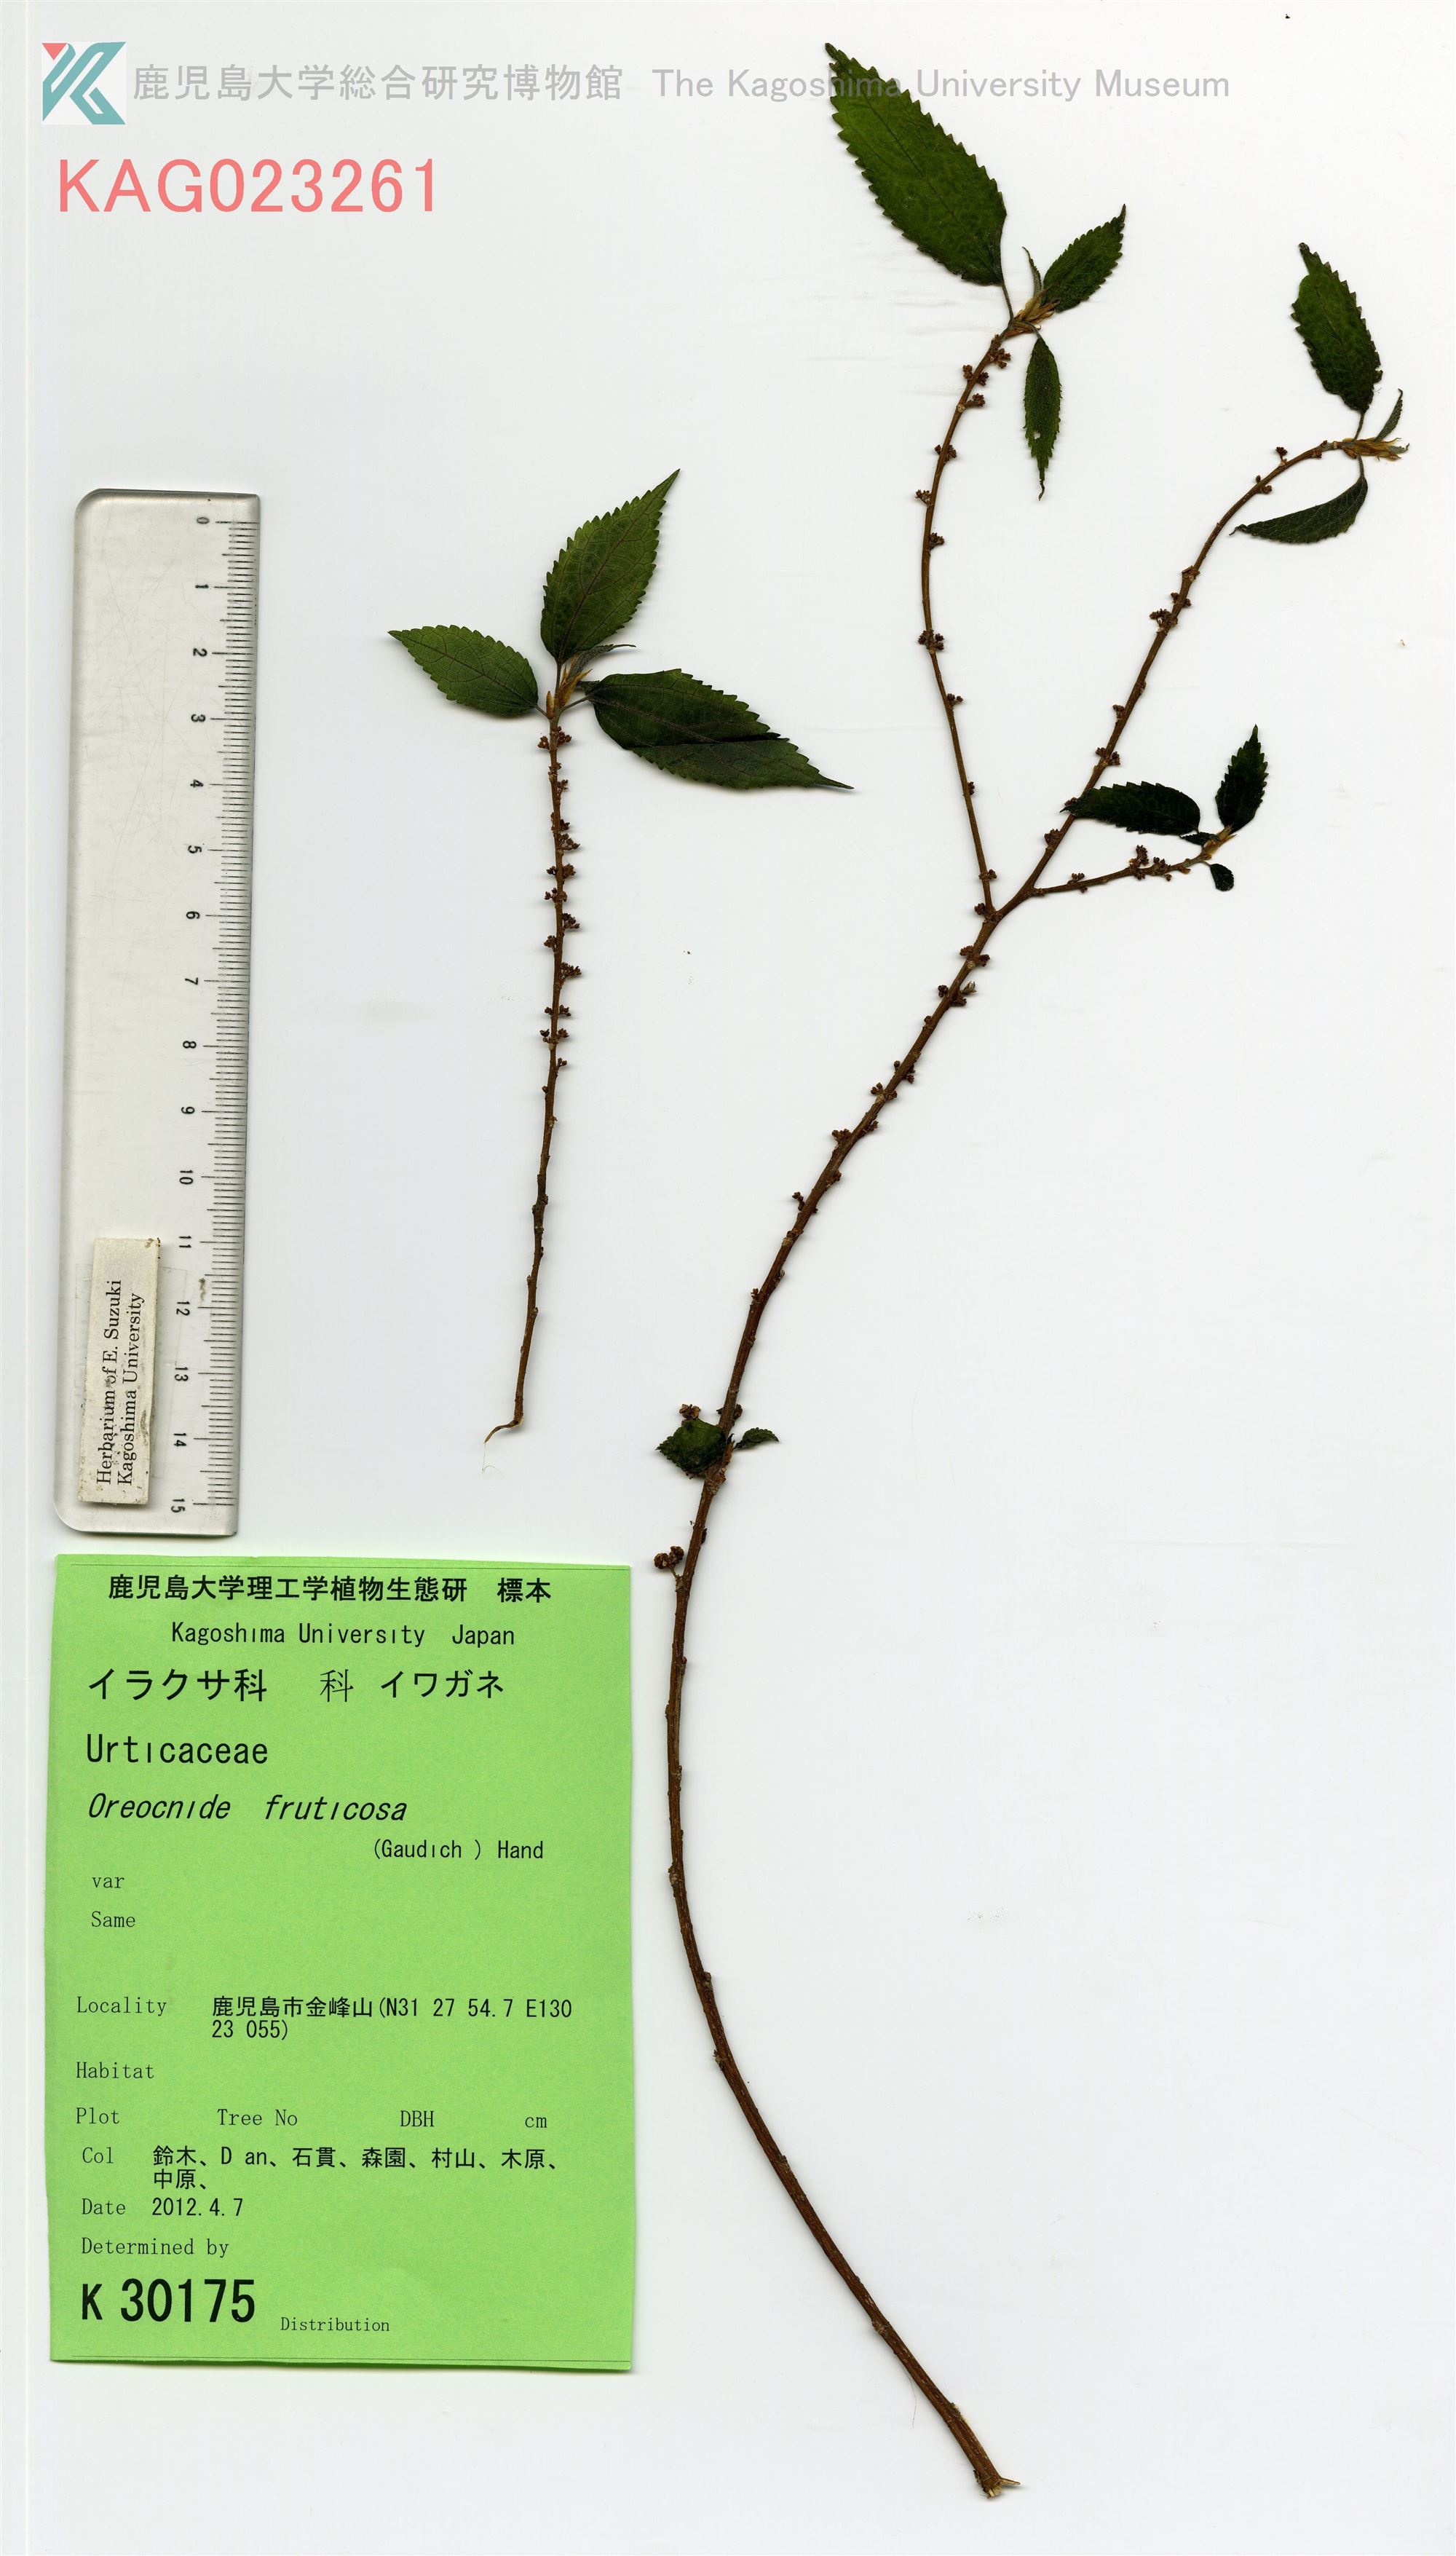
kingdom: Plantae
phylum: Tracheophyta
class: Magnoliopsida
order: Rosales
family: Urticaceae
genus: Oreocnide
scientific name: Oreocnide frutescens
